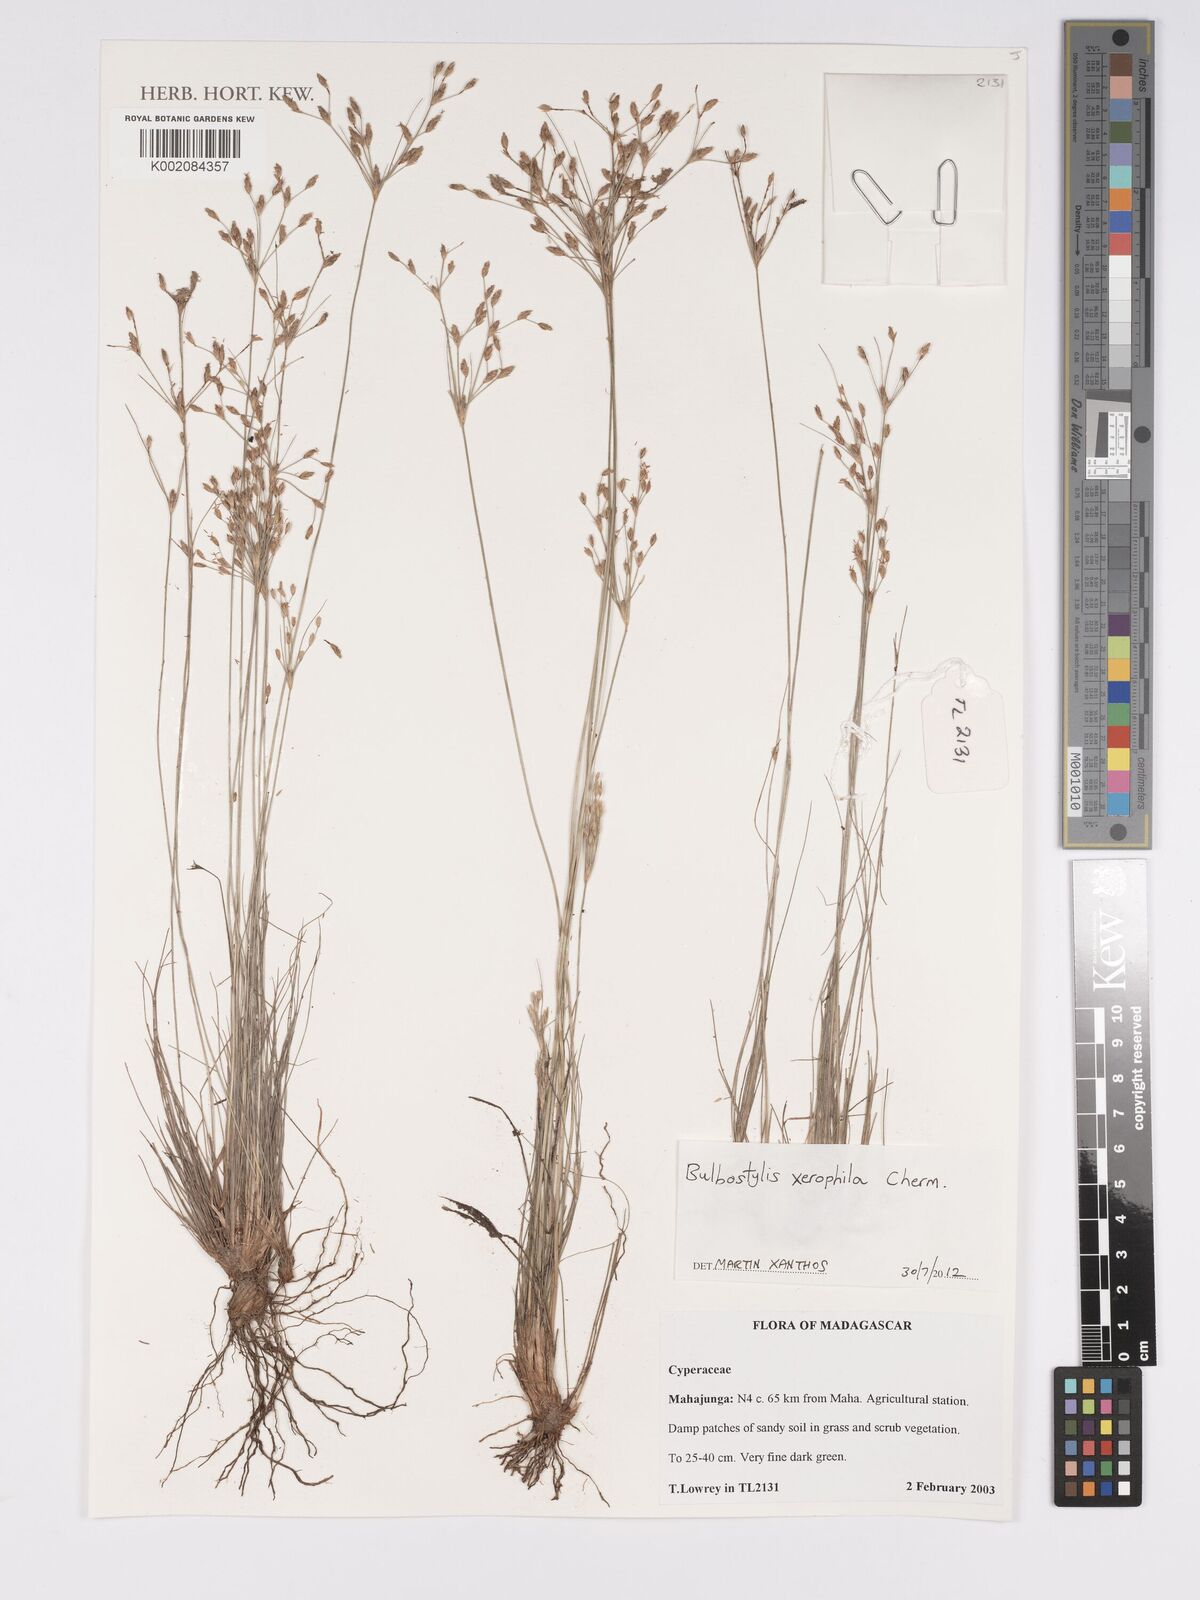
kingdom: Plantae
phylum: Tracheophyta
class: Liliopsida
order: Poales
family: Cyperaceae
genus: Bulbostylis
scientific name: Bulbostylis xerophila
